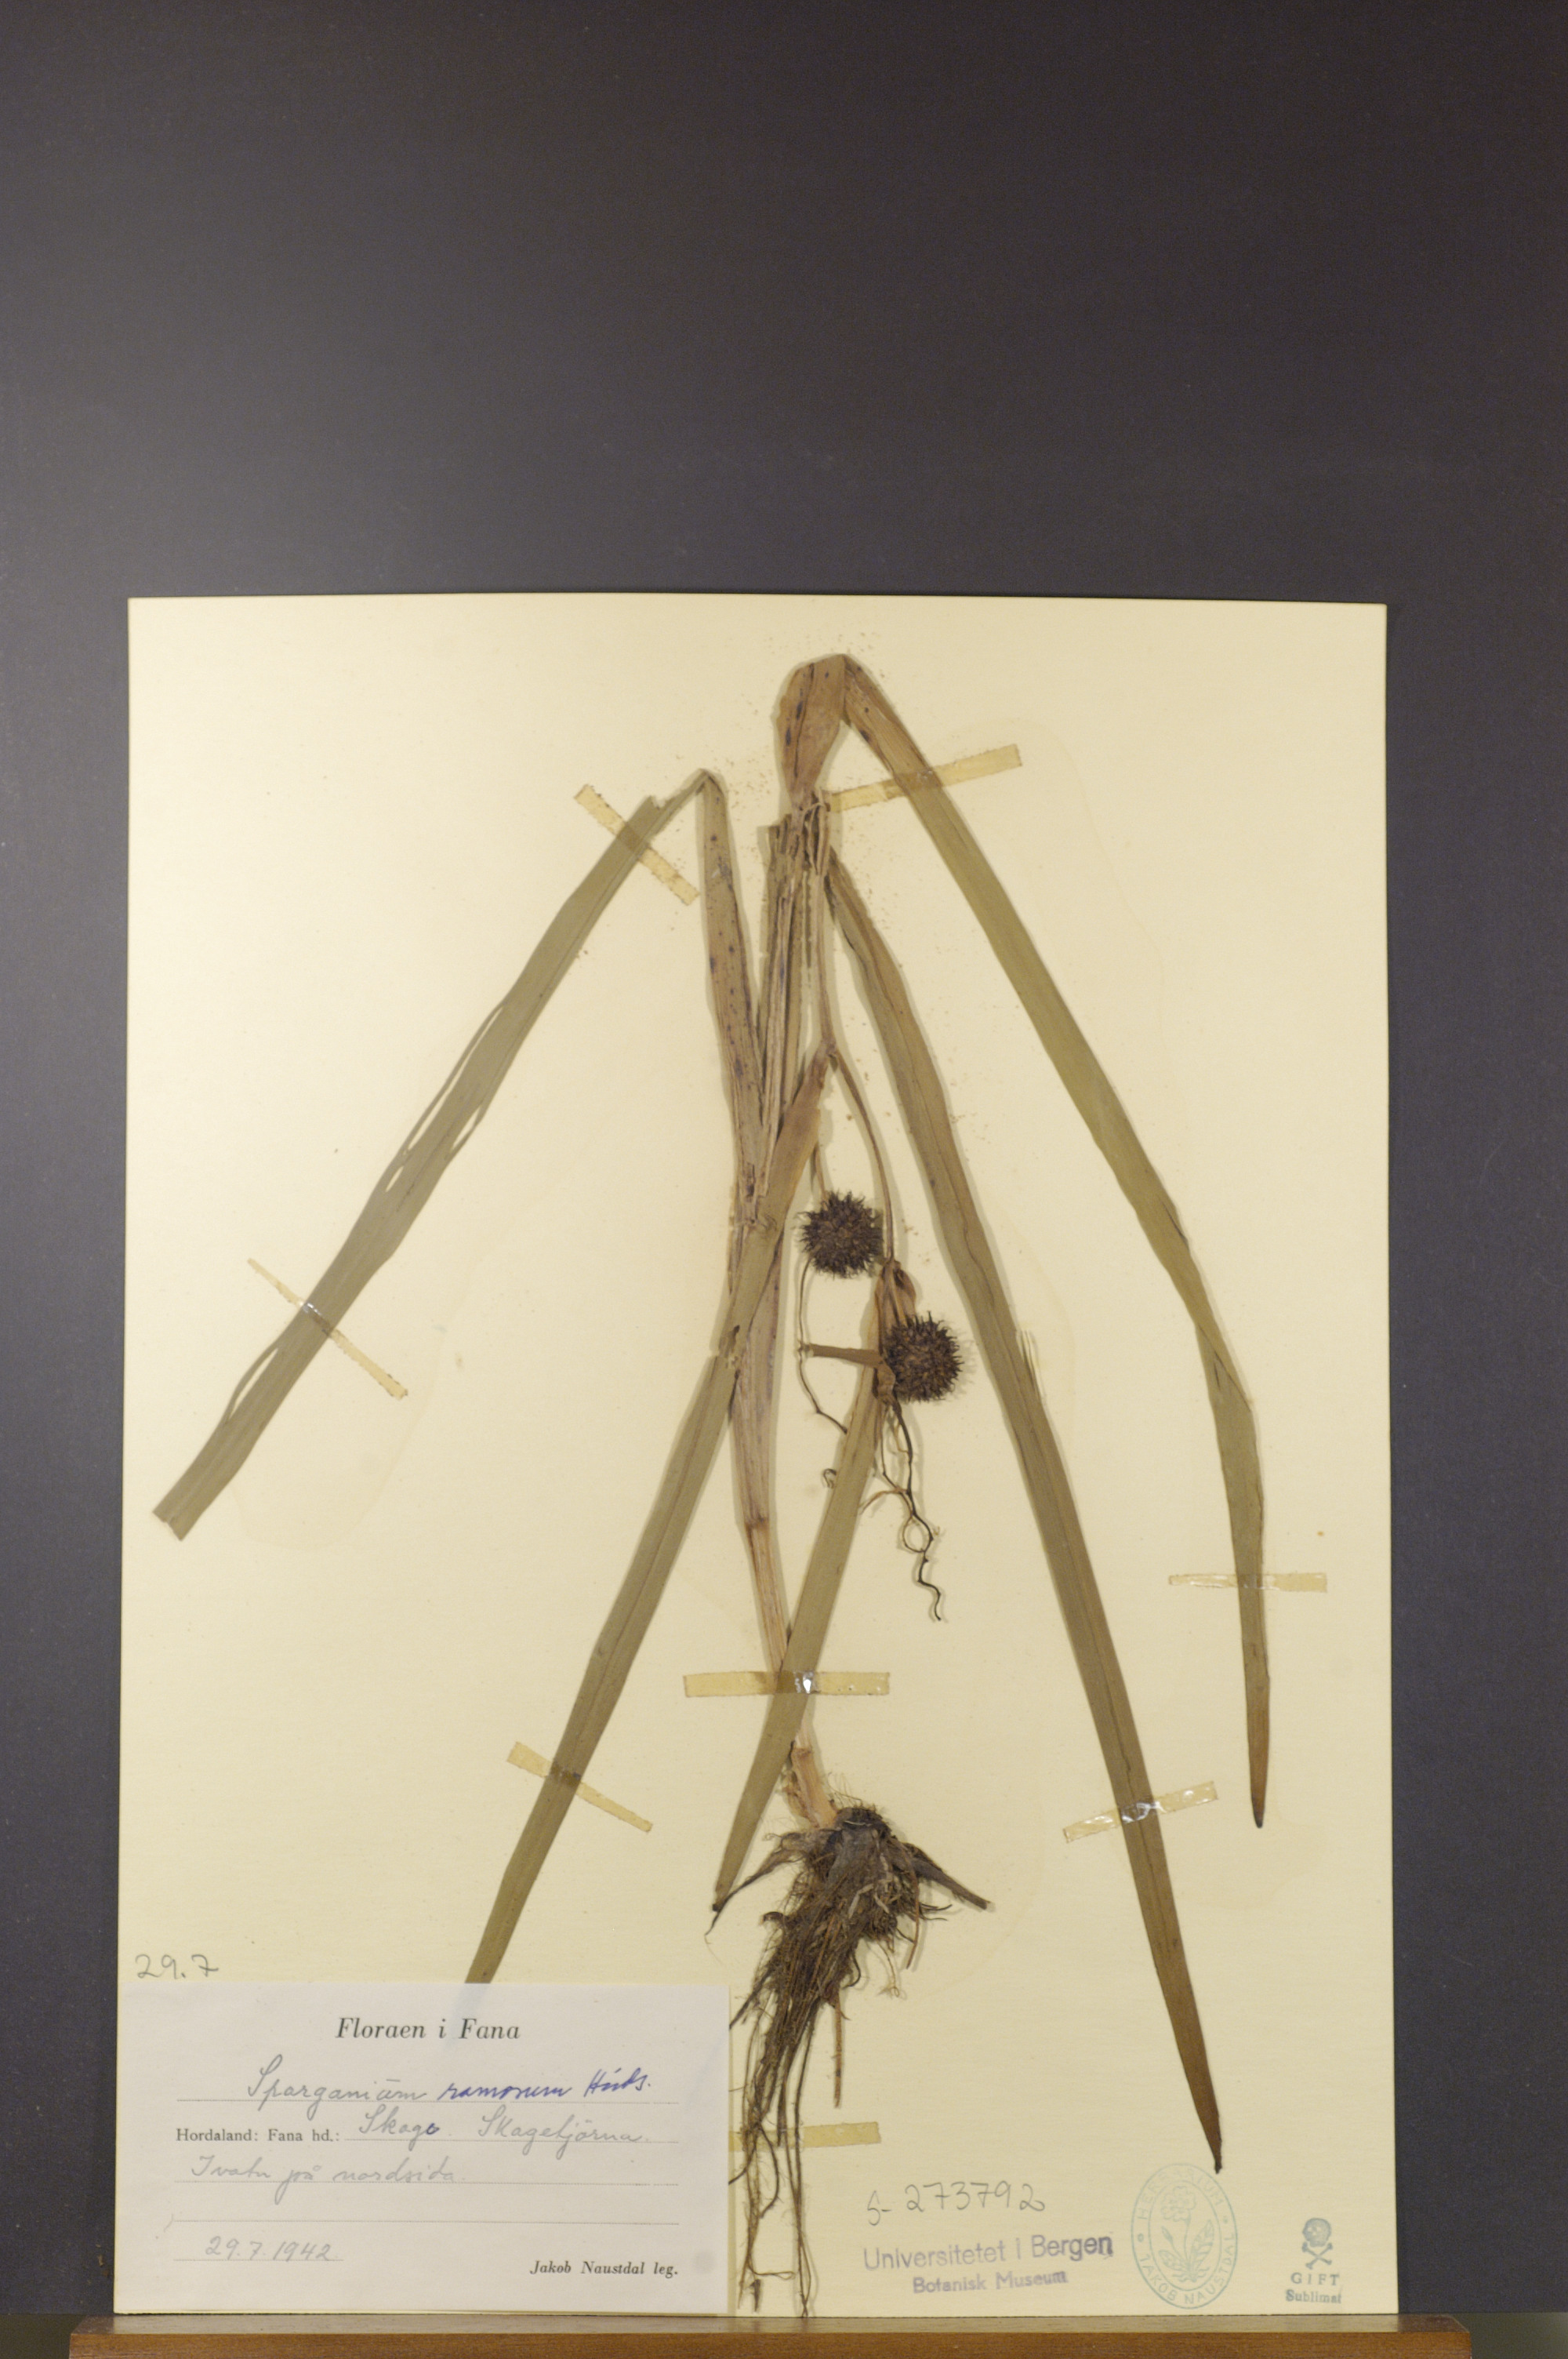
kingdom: Plantae
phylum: Tracheophyta
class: Liliopsida
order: Poales
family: Typhaceae
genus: Sparganium
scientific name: Sparganium erectum
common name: Branched bur-reed
